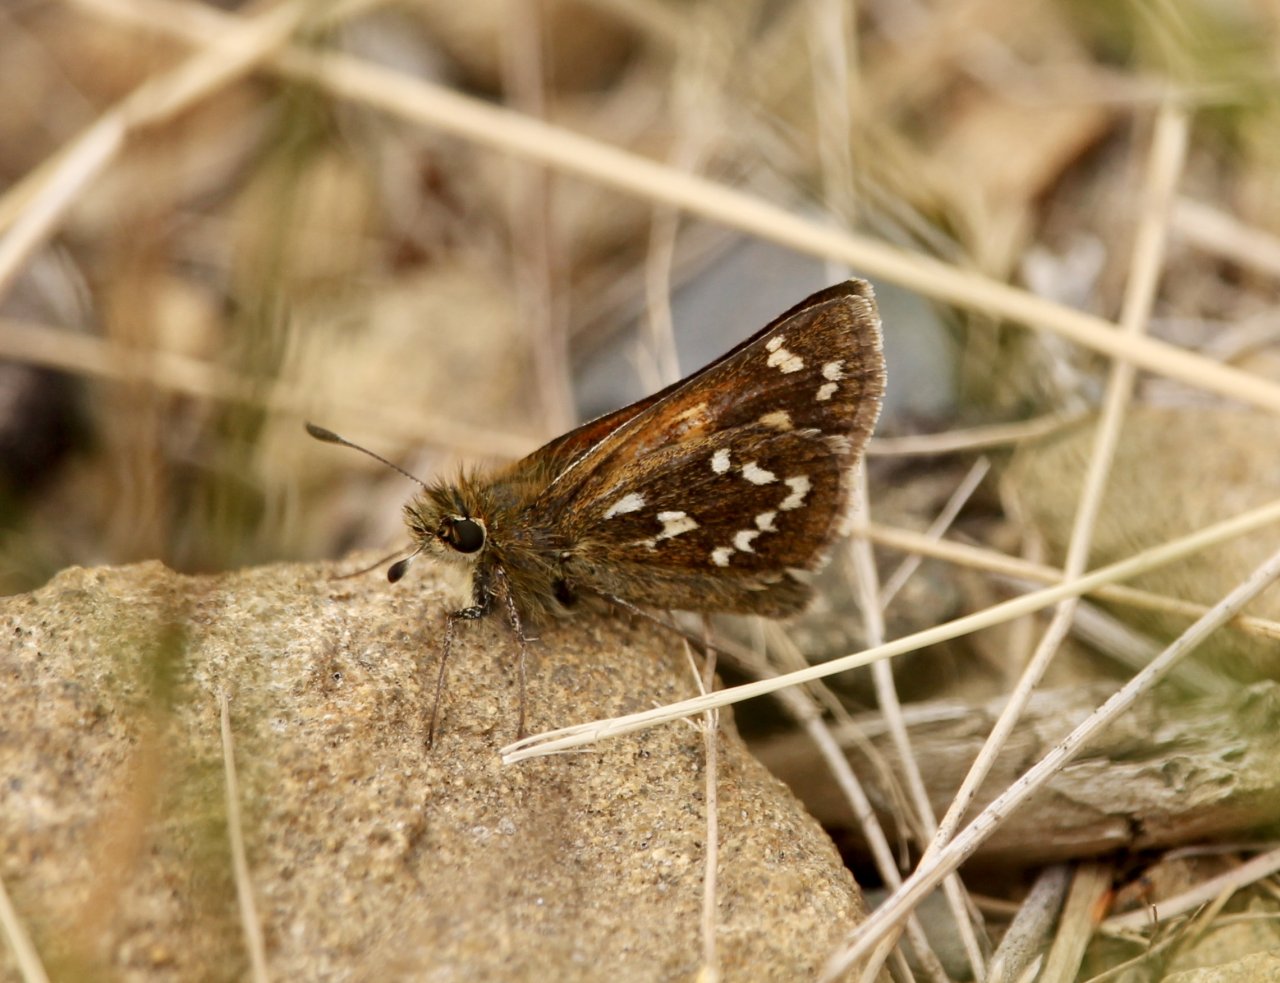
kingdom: Animalia
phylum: Arthropoda
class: Insecta
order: Lepidoptera
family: Hesperiidae
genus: Hesperia
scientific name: Hesperia comma
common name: Common Branded Skipper
